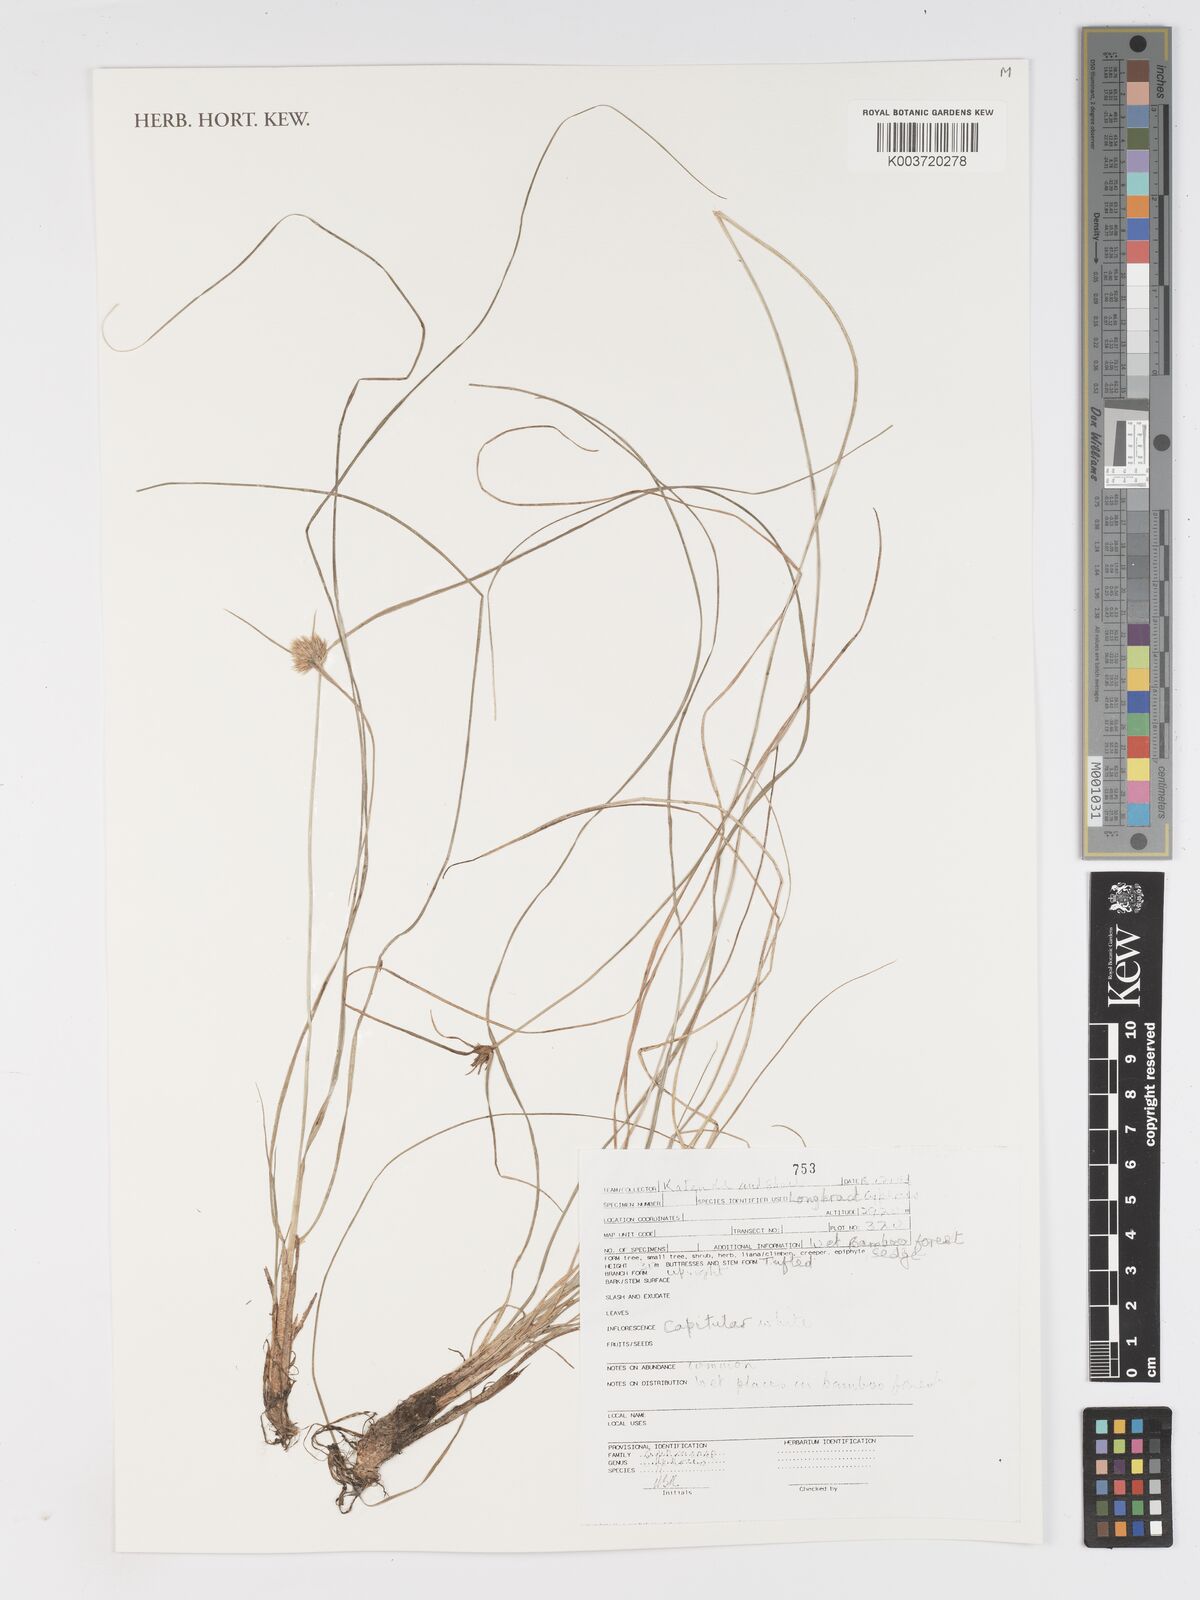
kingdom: Plantae
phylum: Tracheophyta
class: Liliopsida
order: Poales
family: Cyperaceae
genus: Cyperus
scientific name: Cyperus
